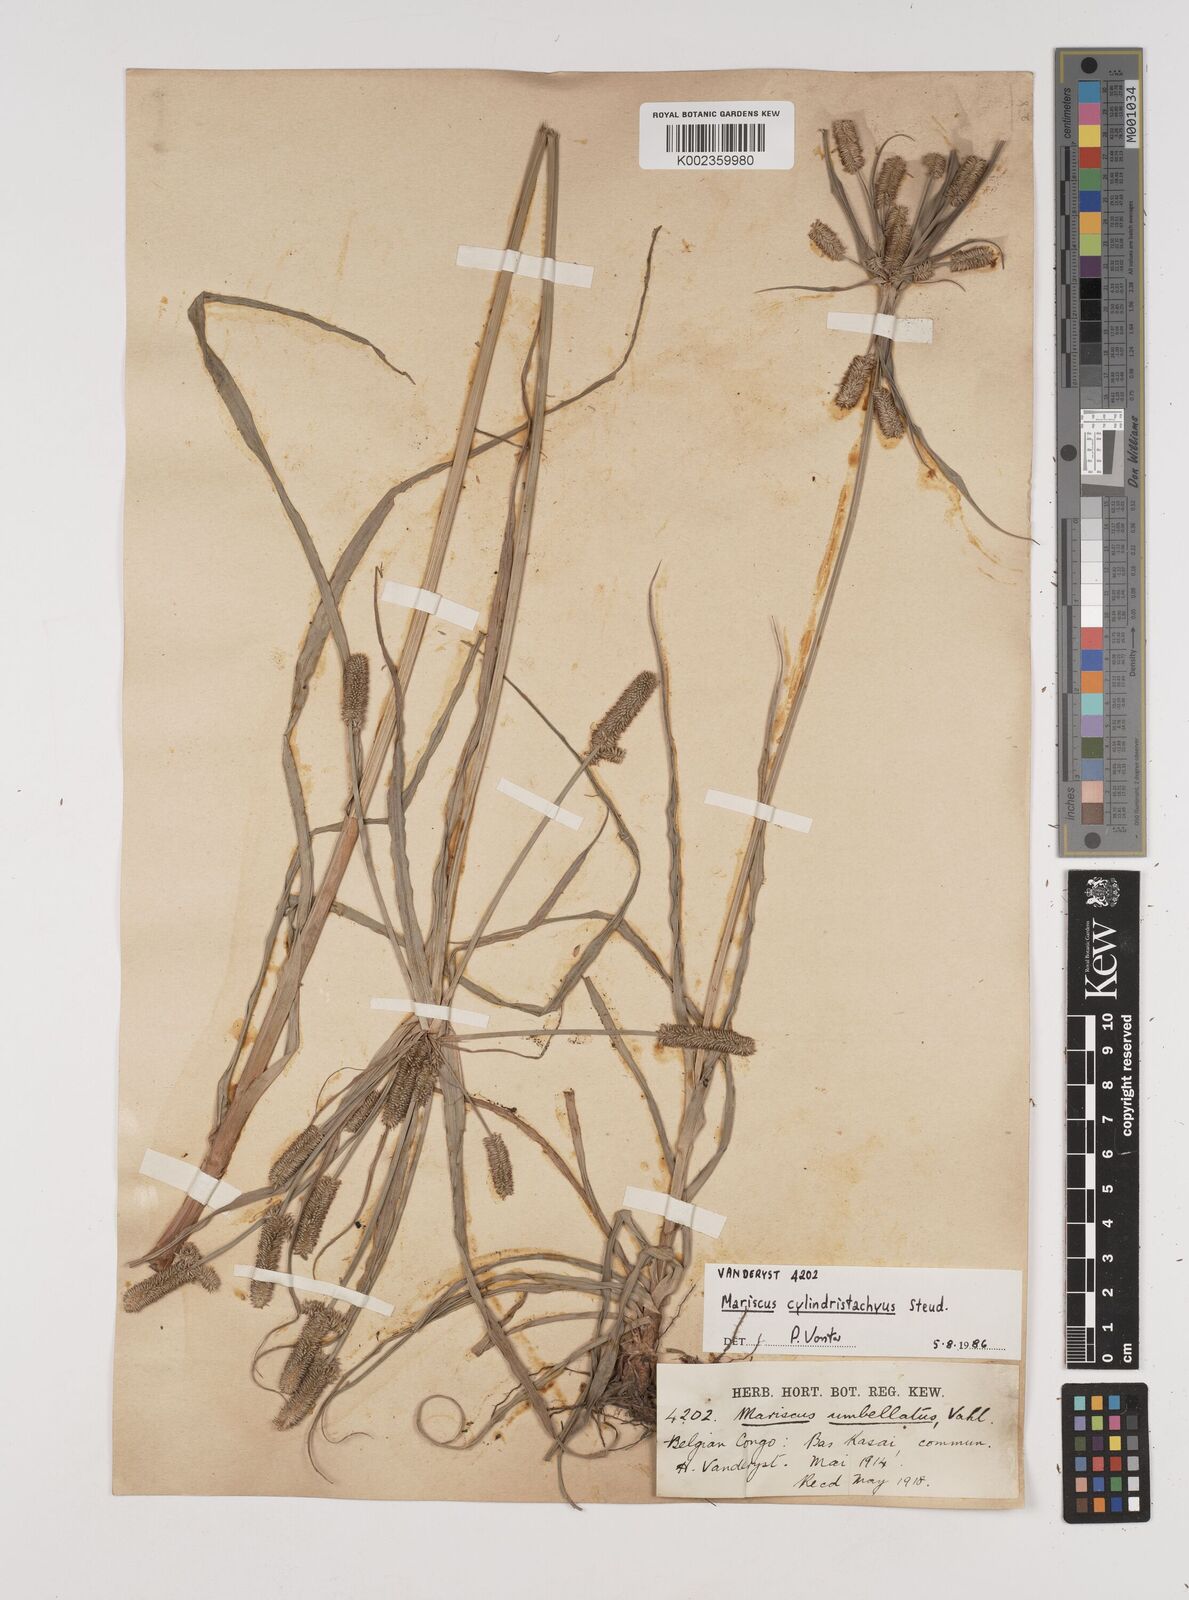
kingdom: Plantae
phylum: Tracheophyta
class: Liliopsida
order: Poales
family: Cyperaceae
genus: Cyperus
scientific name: Cyperus cyperoides
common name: Pacific island flat sedge
